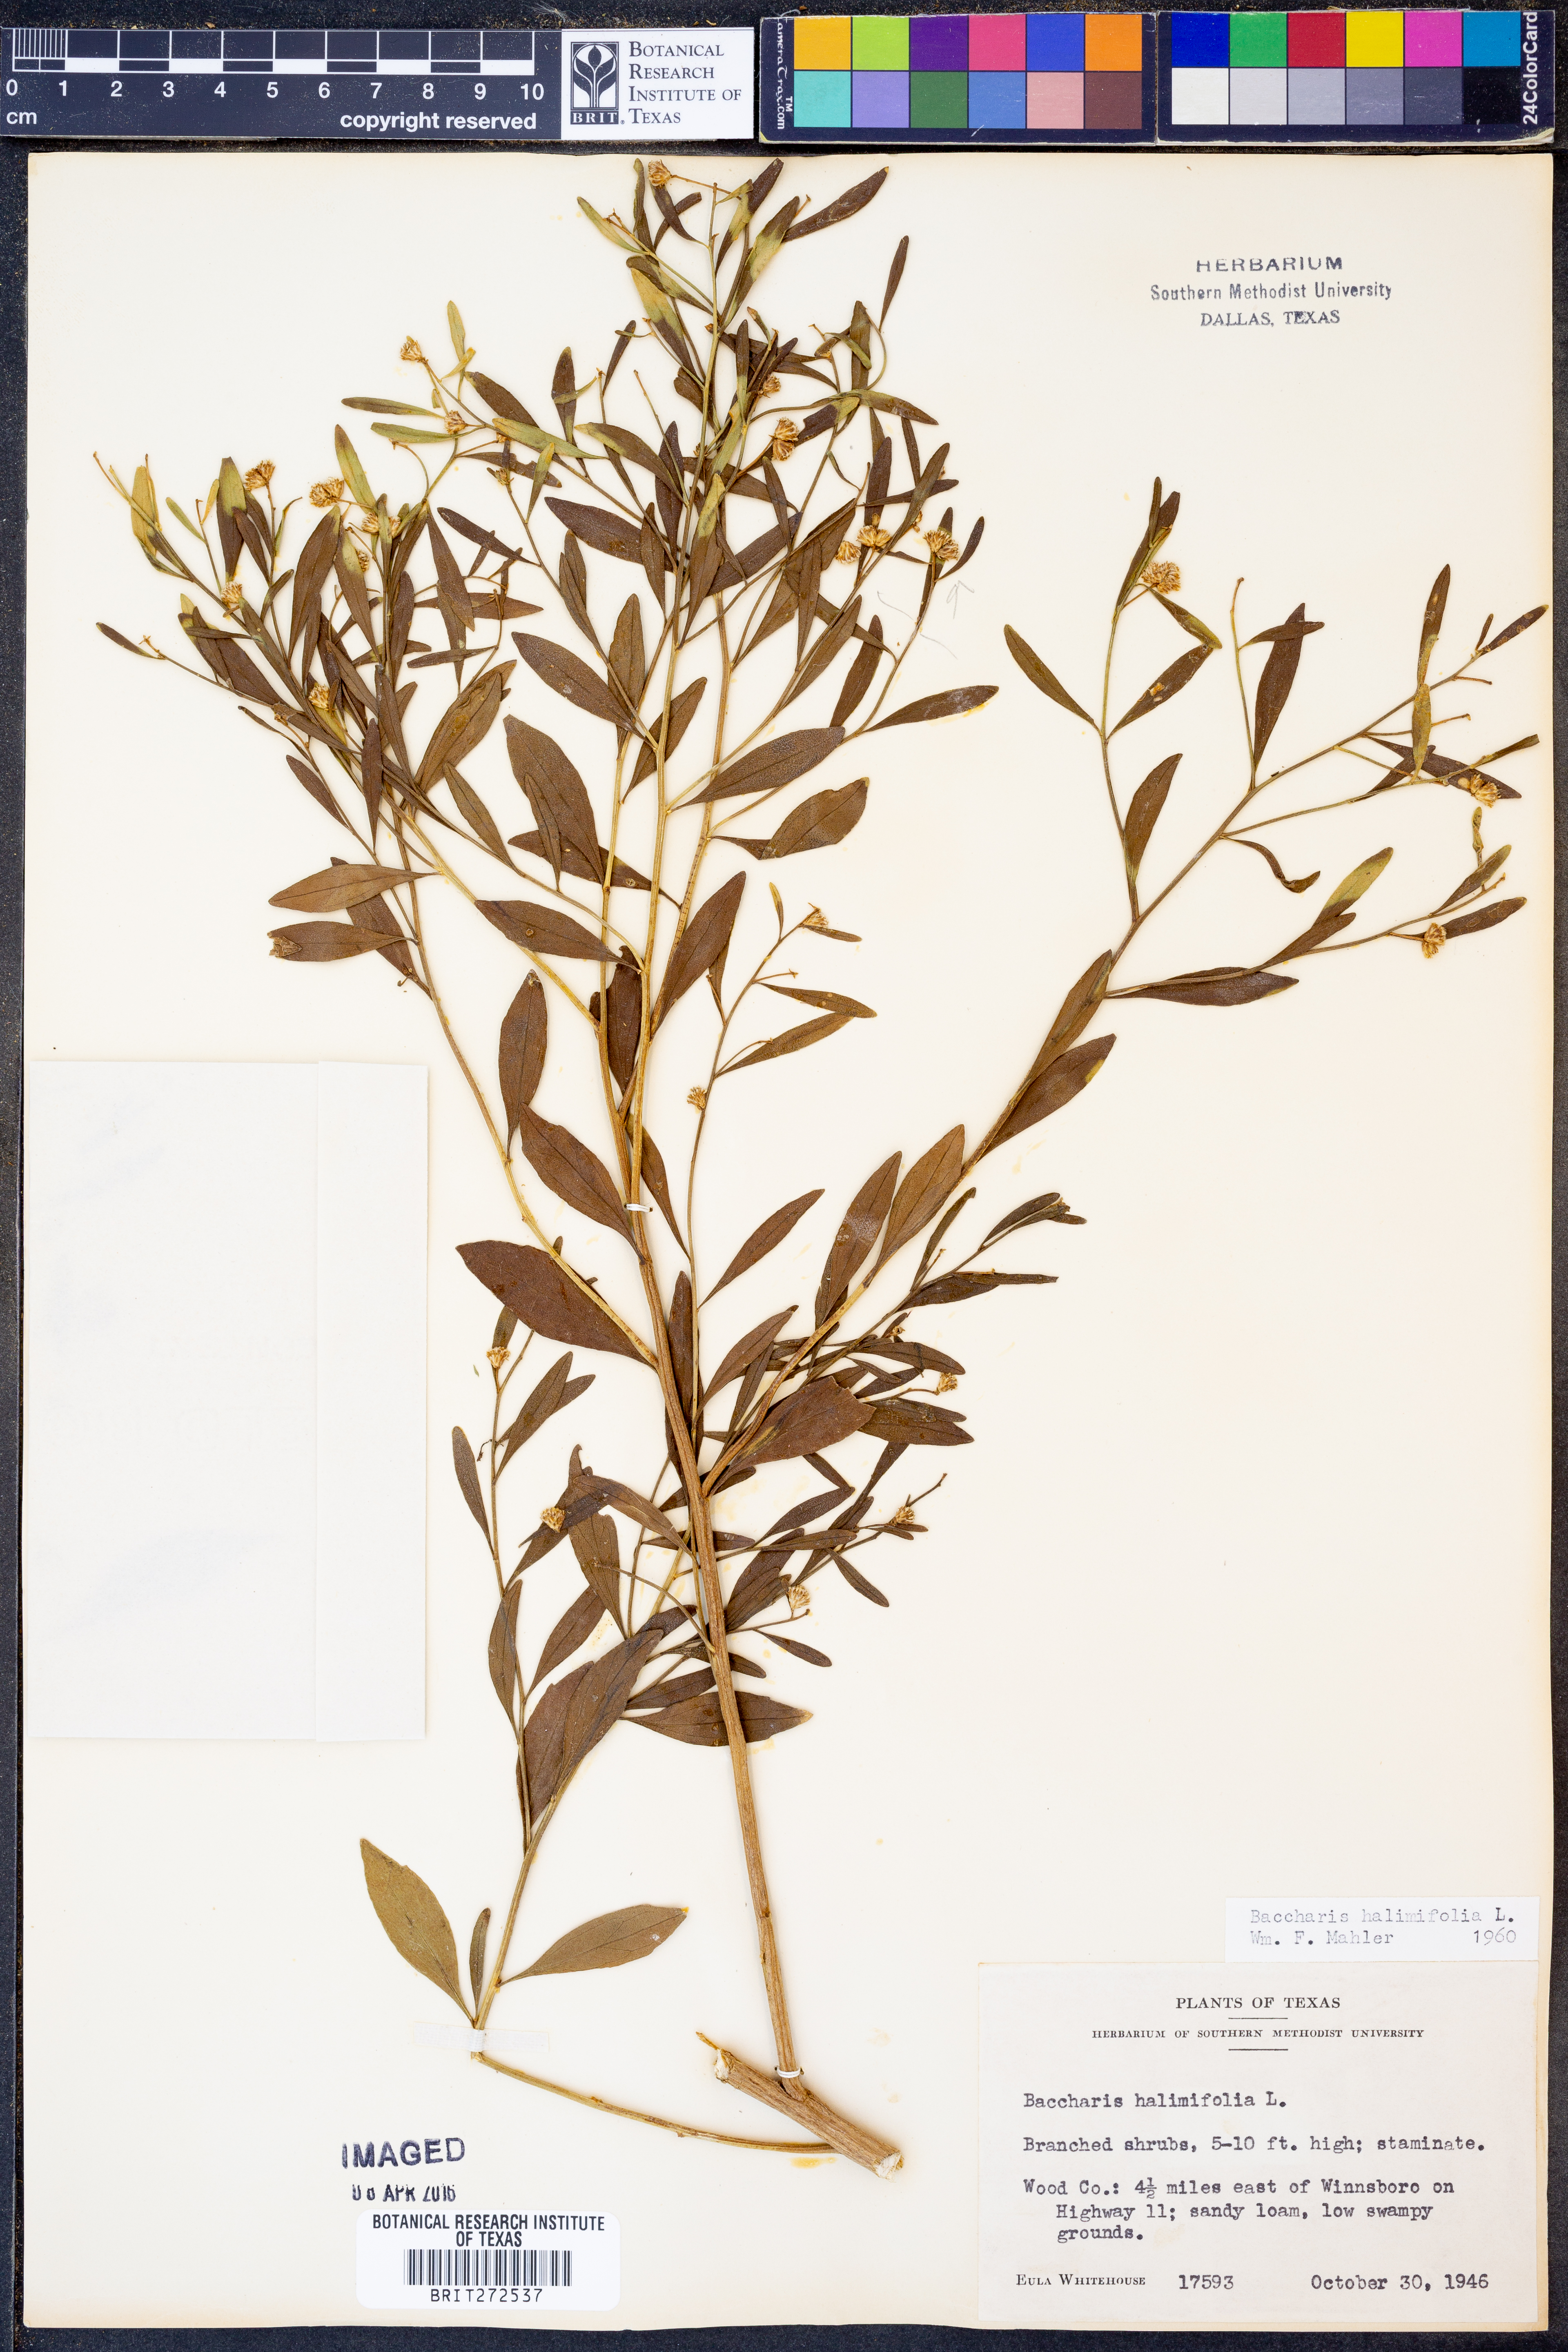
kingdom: Plantae
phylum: Tracheophyta
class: Magnoliopsida
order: Asterales
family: Asteraceae
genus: Nidorella
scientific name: Nidorella ivifolia
